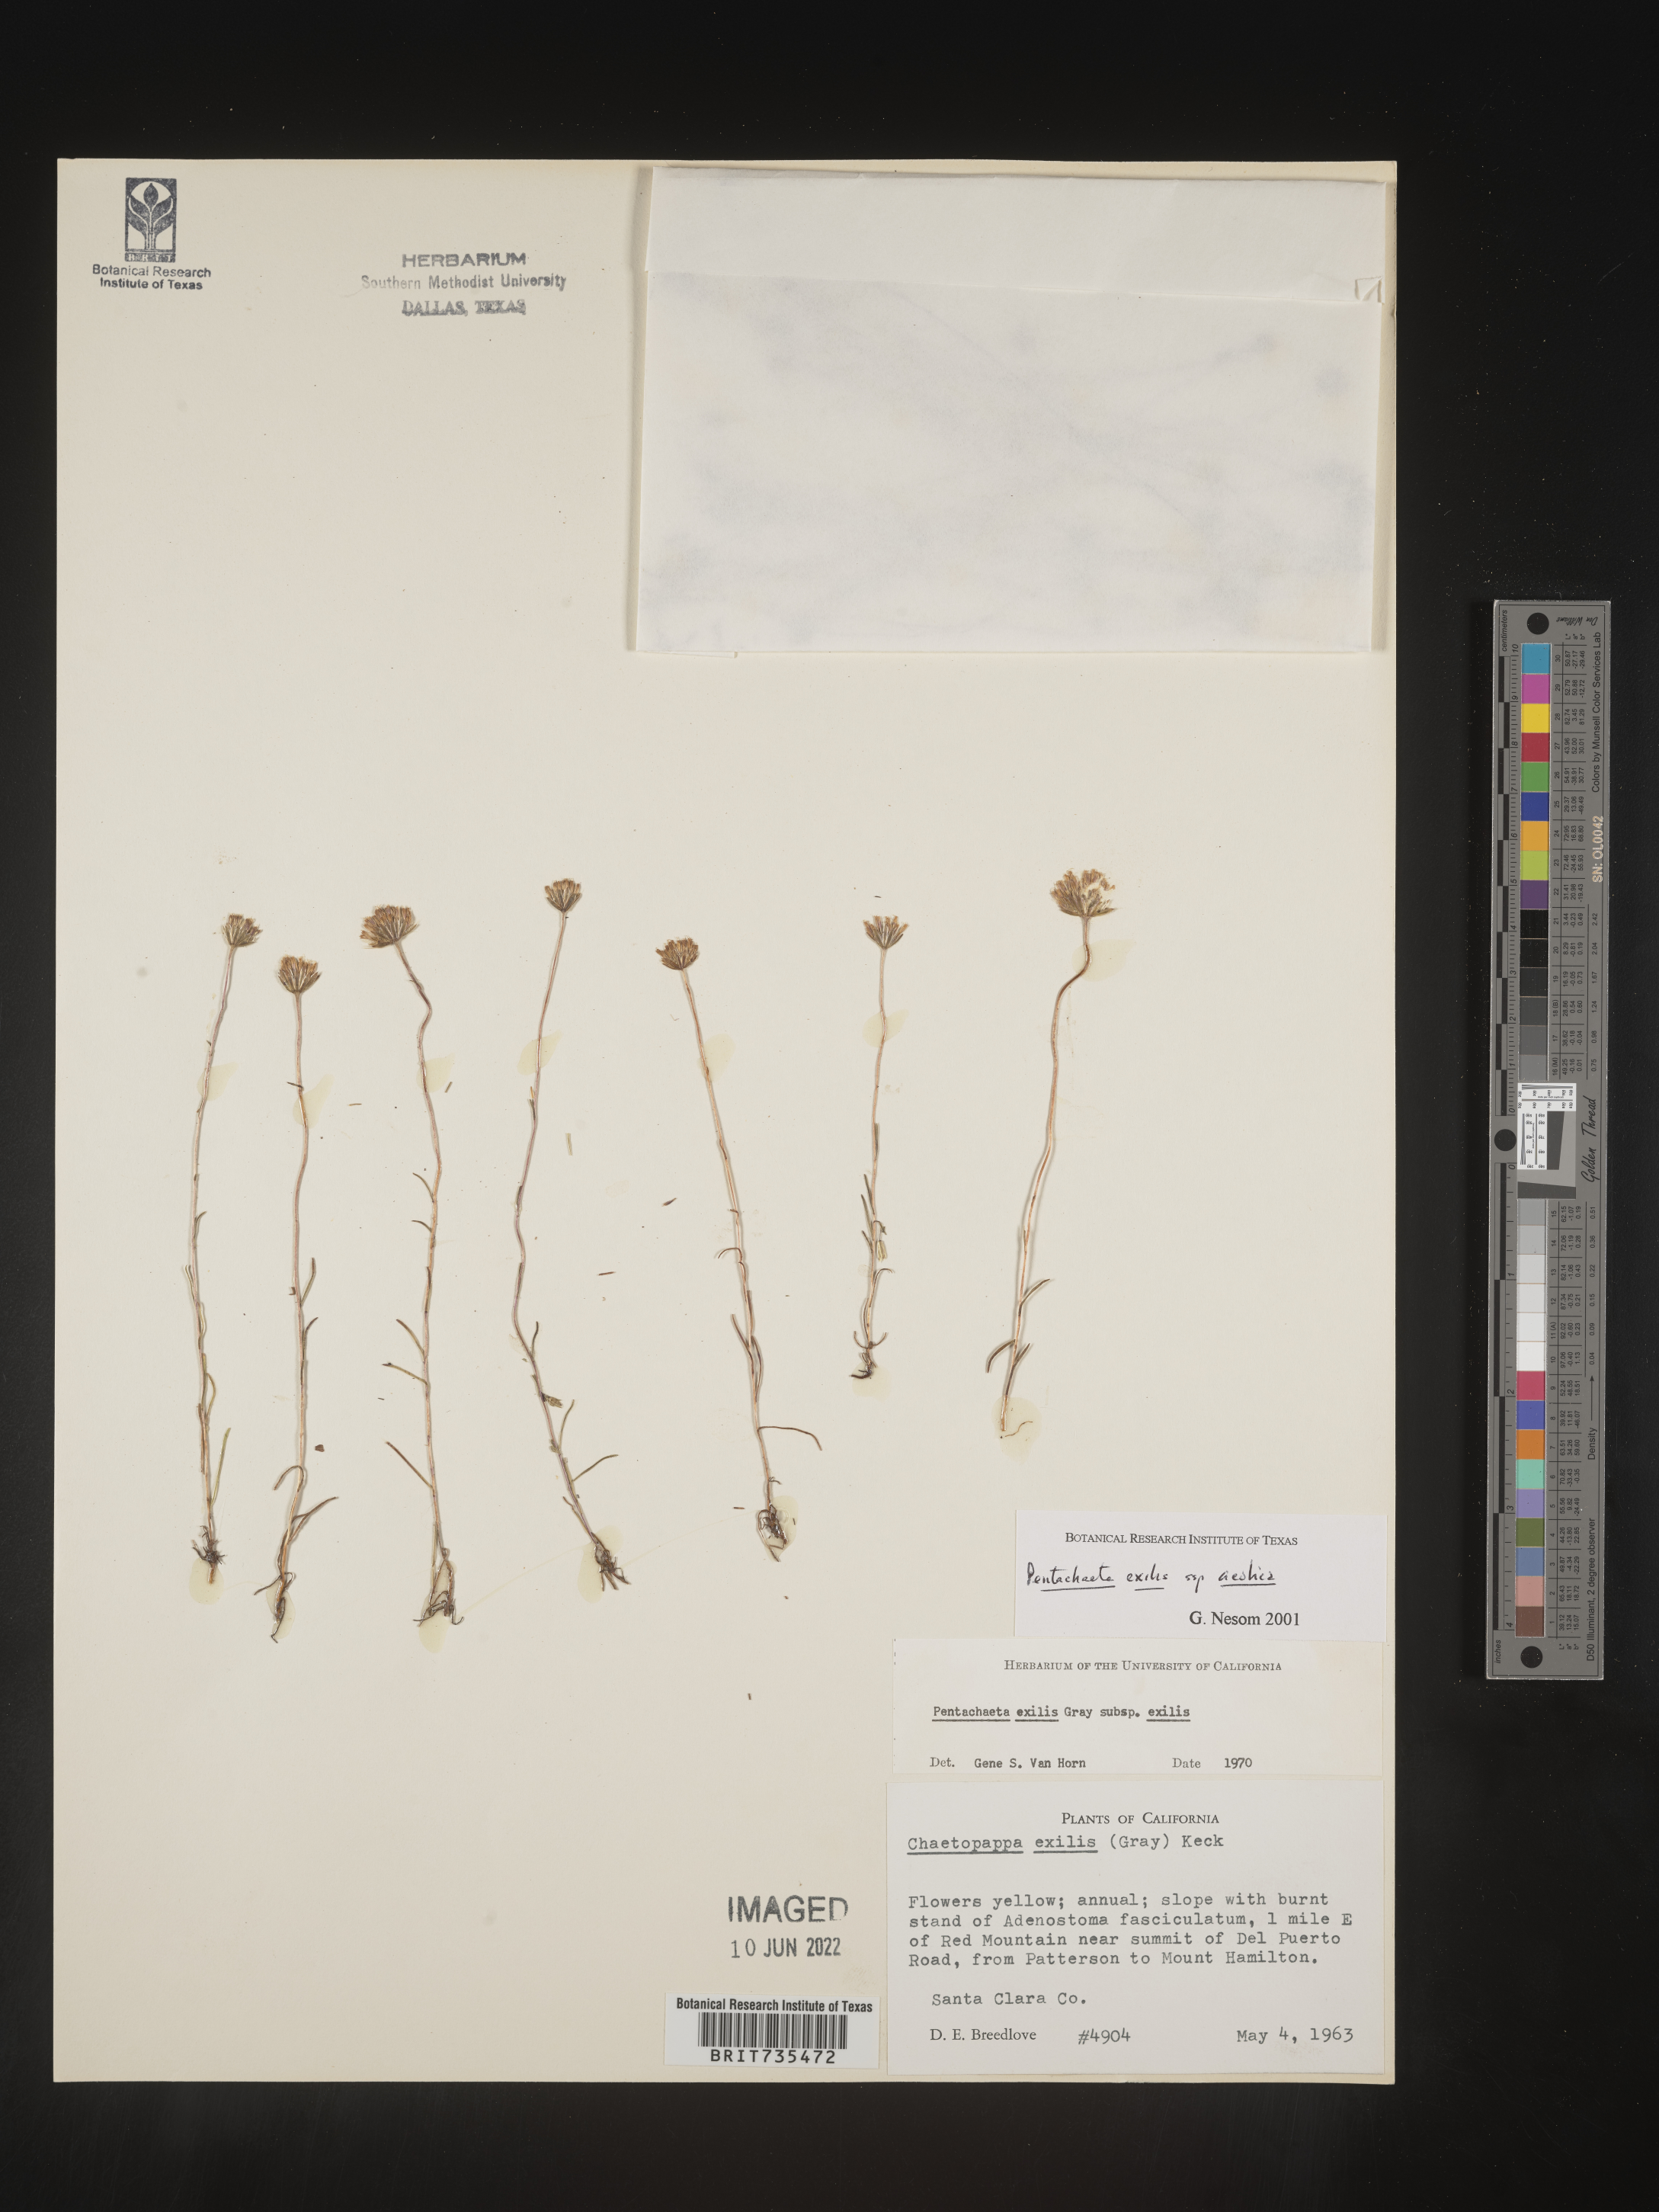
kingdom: Plantae
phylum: Tracheophyta
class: Magnoliopsida
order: Asterales
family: Asteraceae
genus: Pentachaeta
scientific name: Pentachaeta exilis
